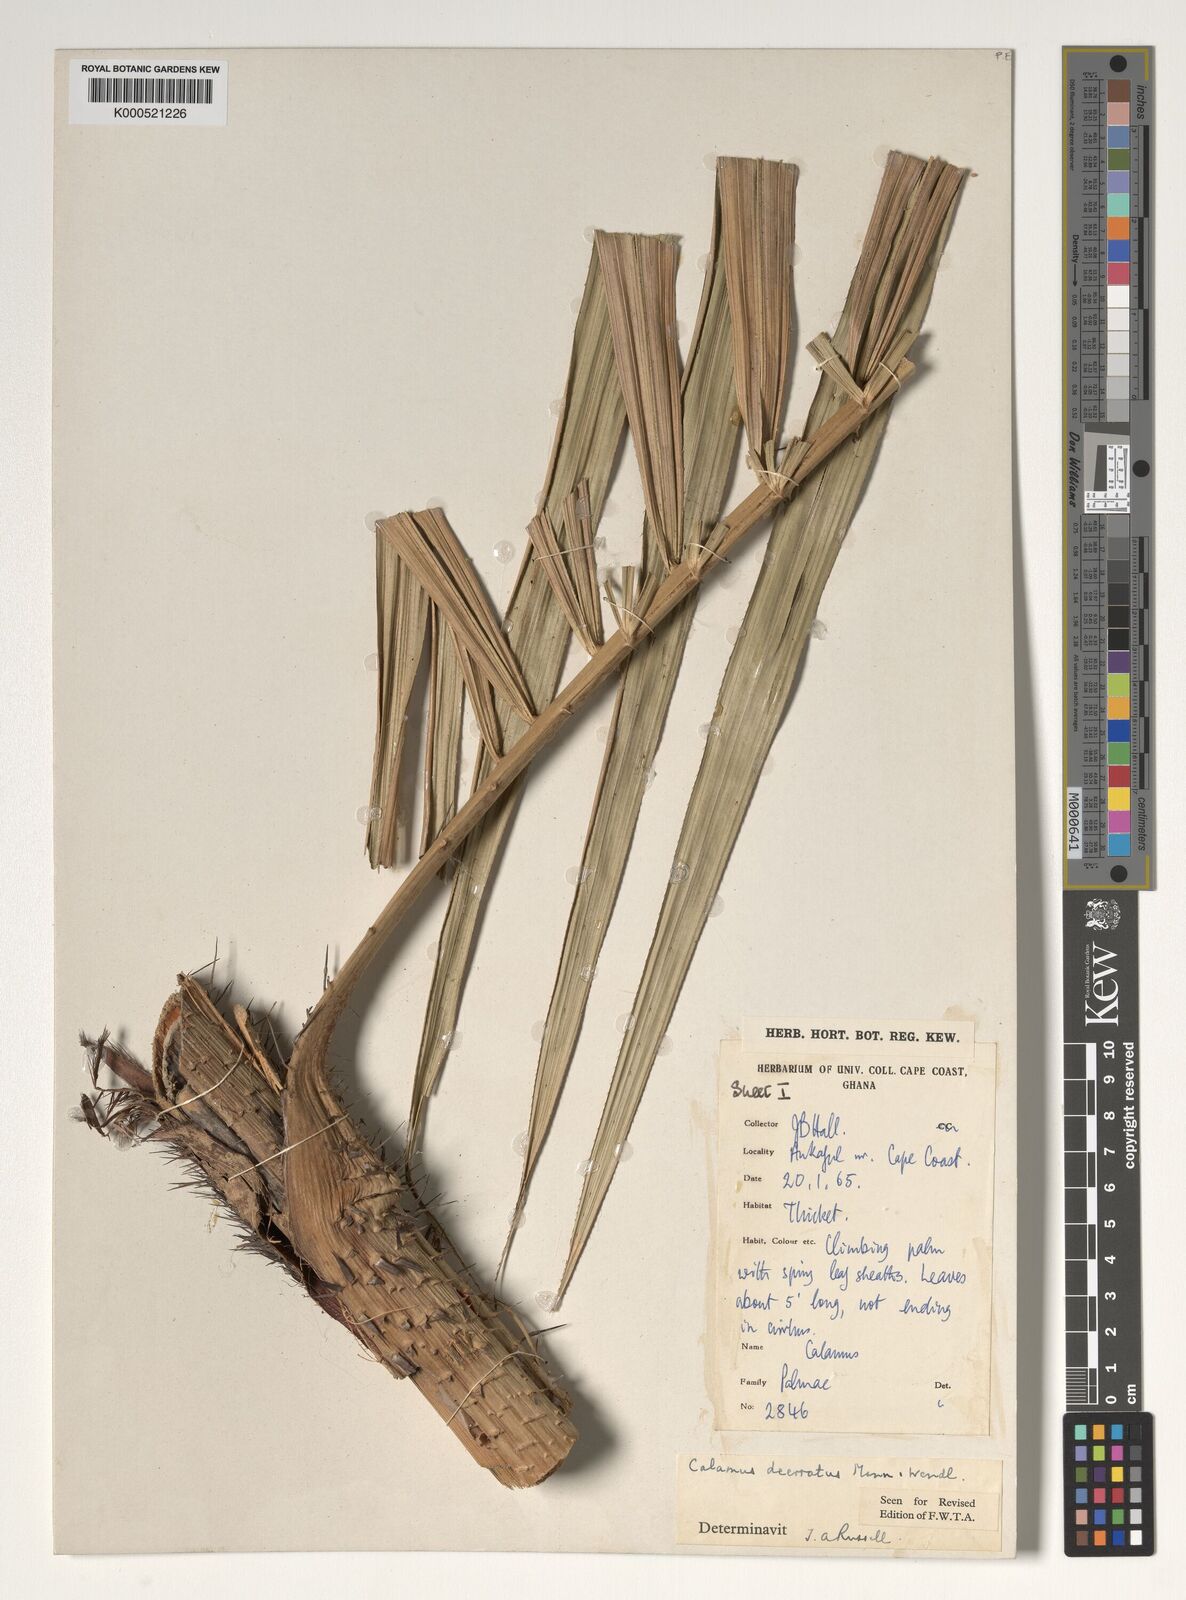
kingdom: Plantae
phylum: Tracheophyta
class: Liliopsida
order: Arecales
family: Arecaceae
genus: Calamus
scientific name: Calamus deerratus
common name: Rattan
